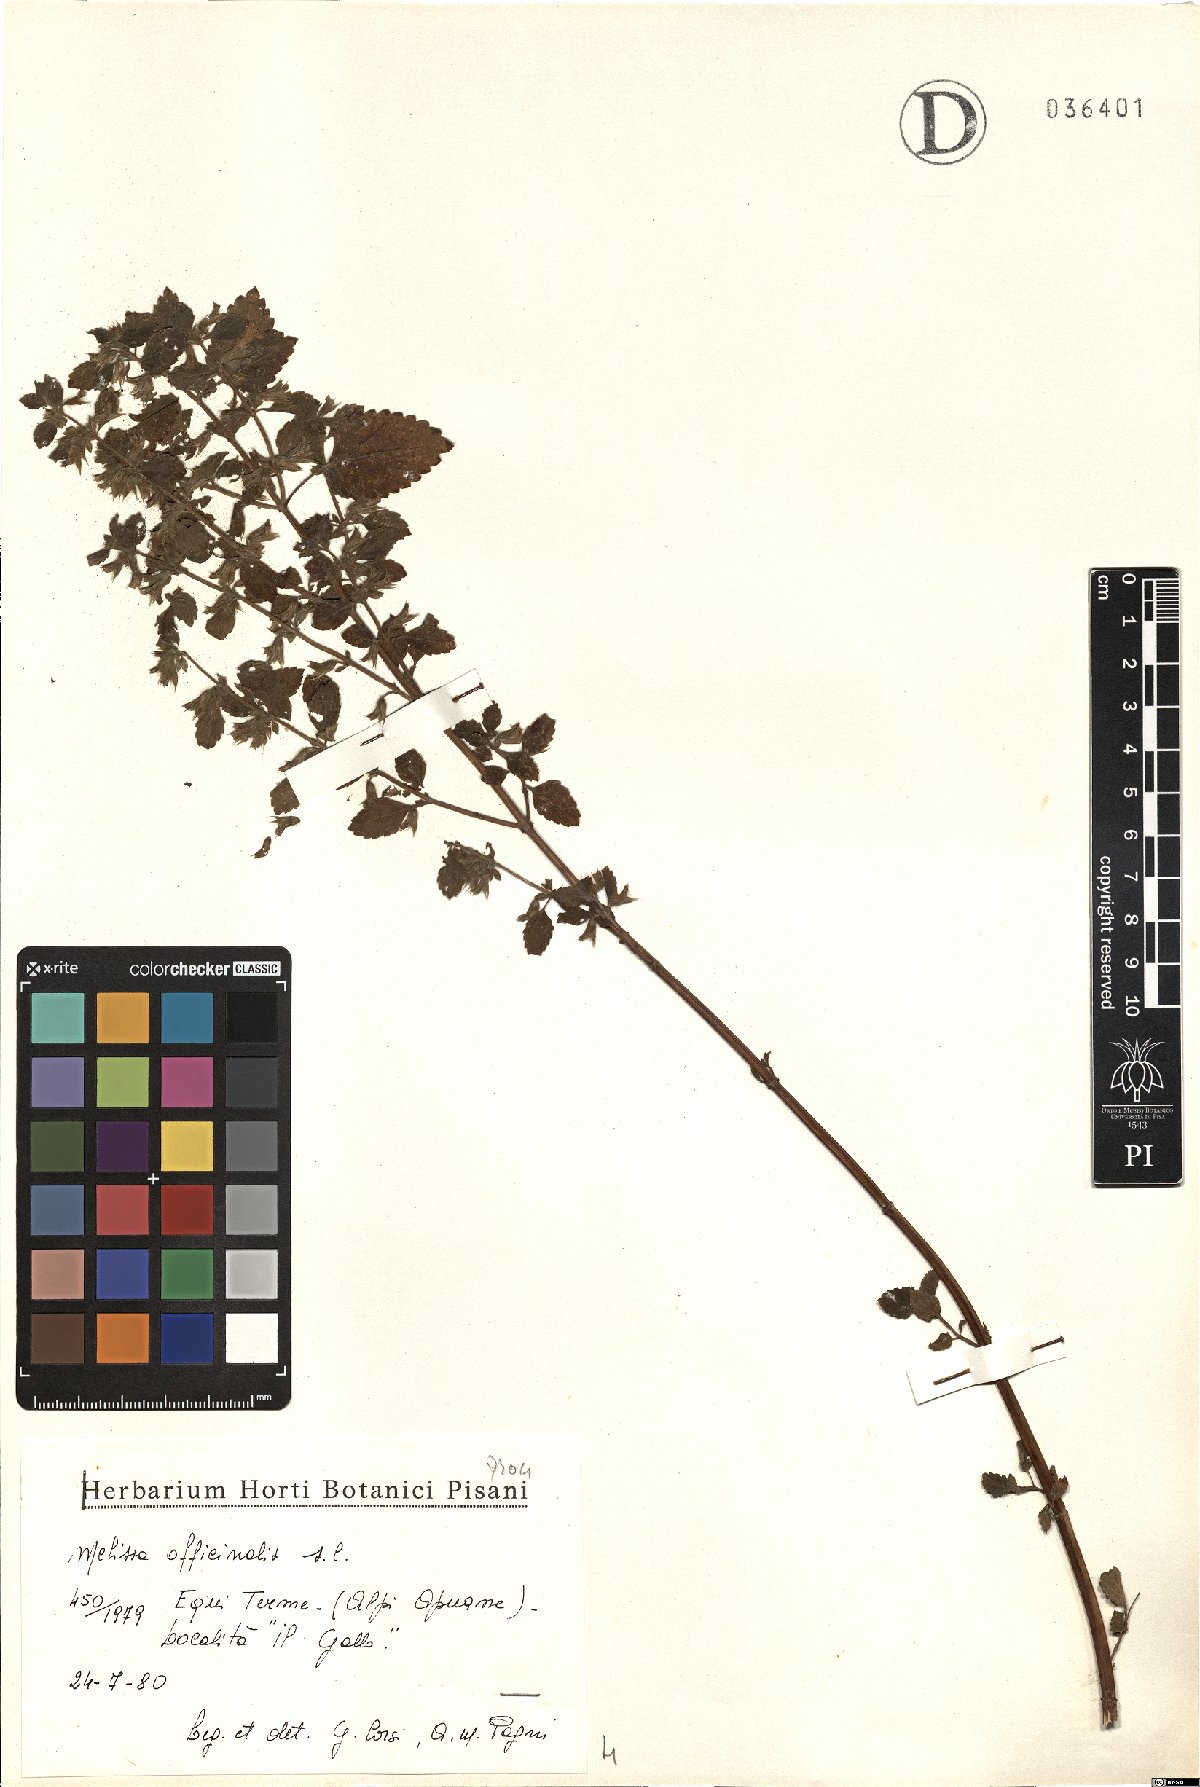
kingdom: Plantae
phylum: Tracheophyta
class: Magnoliopsida
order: Lamiales
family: Lamiaceae
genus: Melissa
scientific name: Melissa officinalis
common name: Balm
